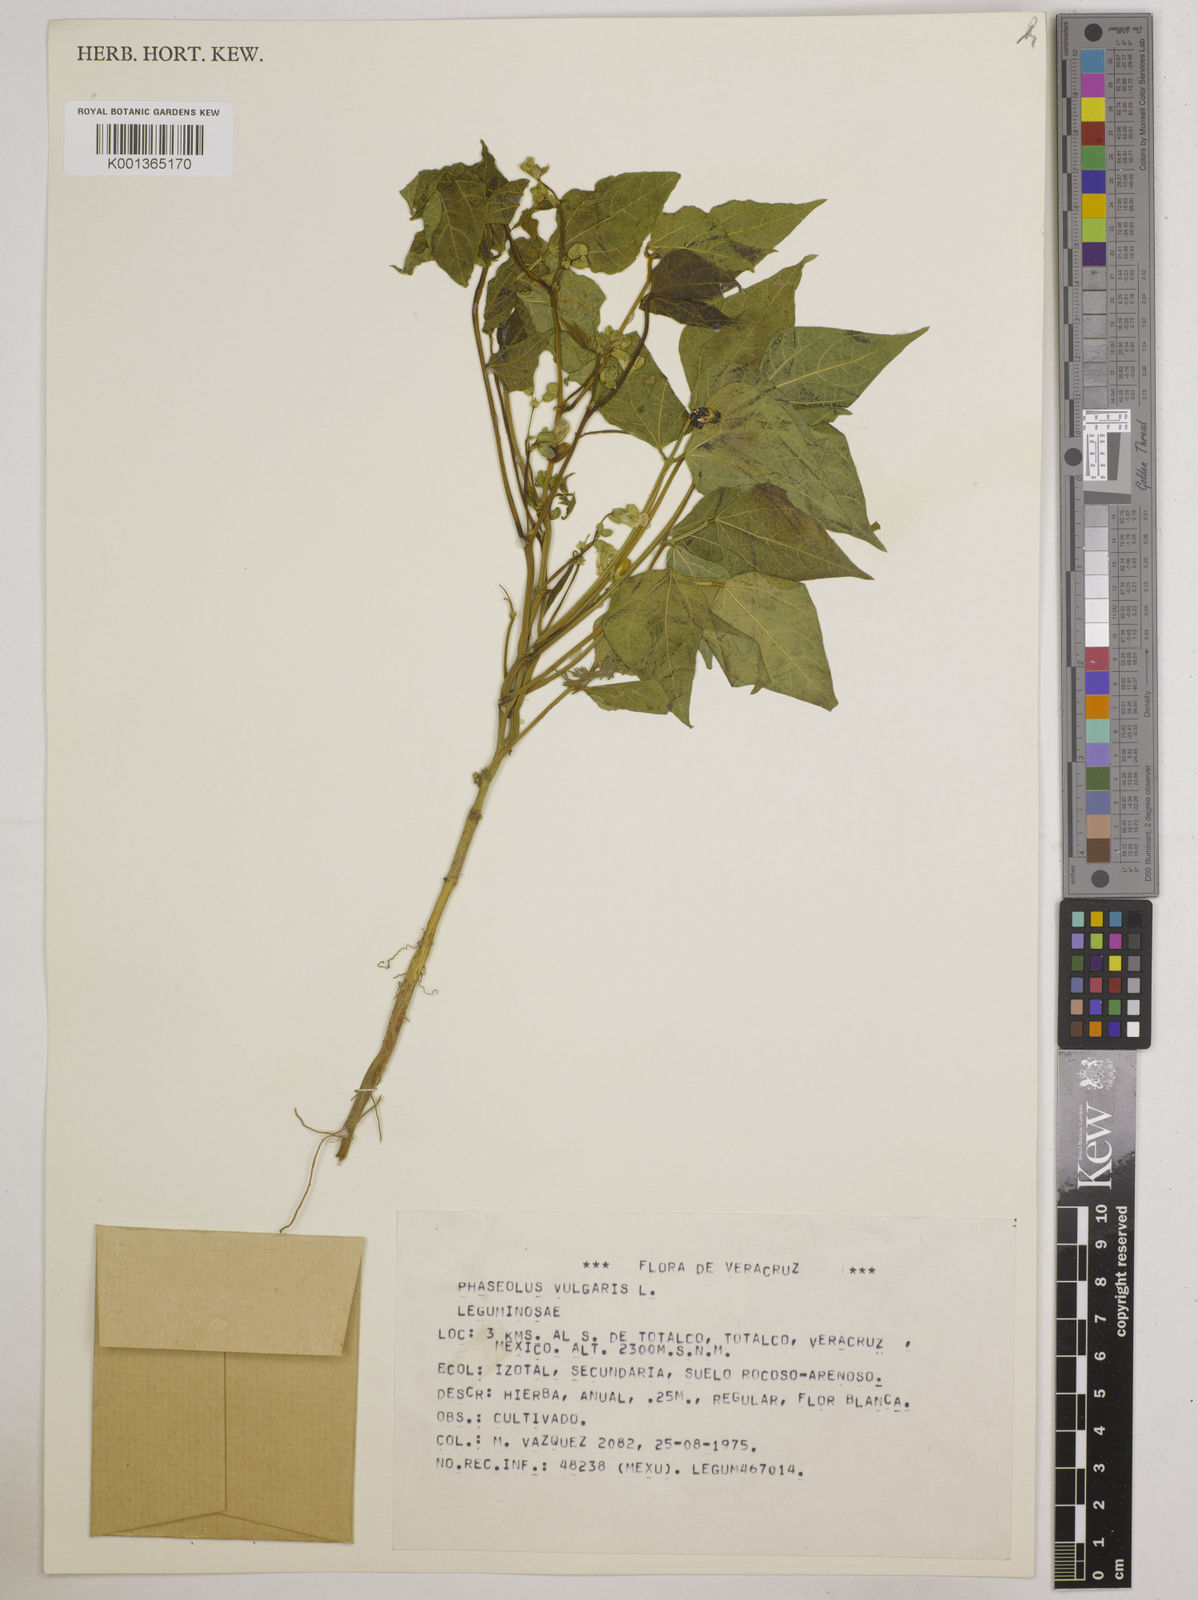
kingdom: Plantae
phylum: Tracheophyta
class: Magnoliopsida
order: Fabales
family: Fabaceae
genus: Phaseolus
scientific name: Phaseolus vulgaris
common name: Bean
